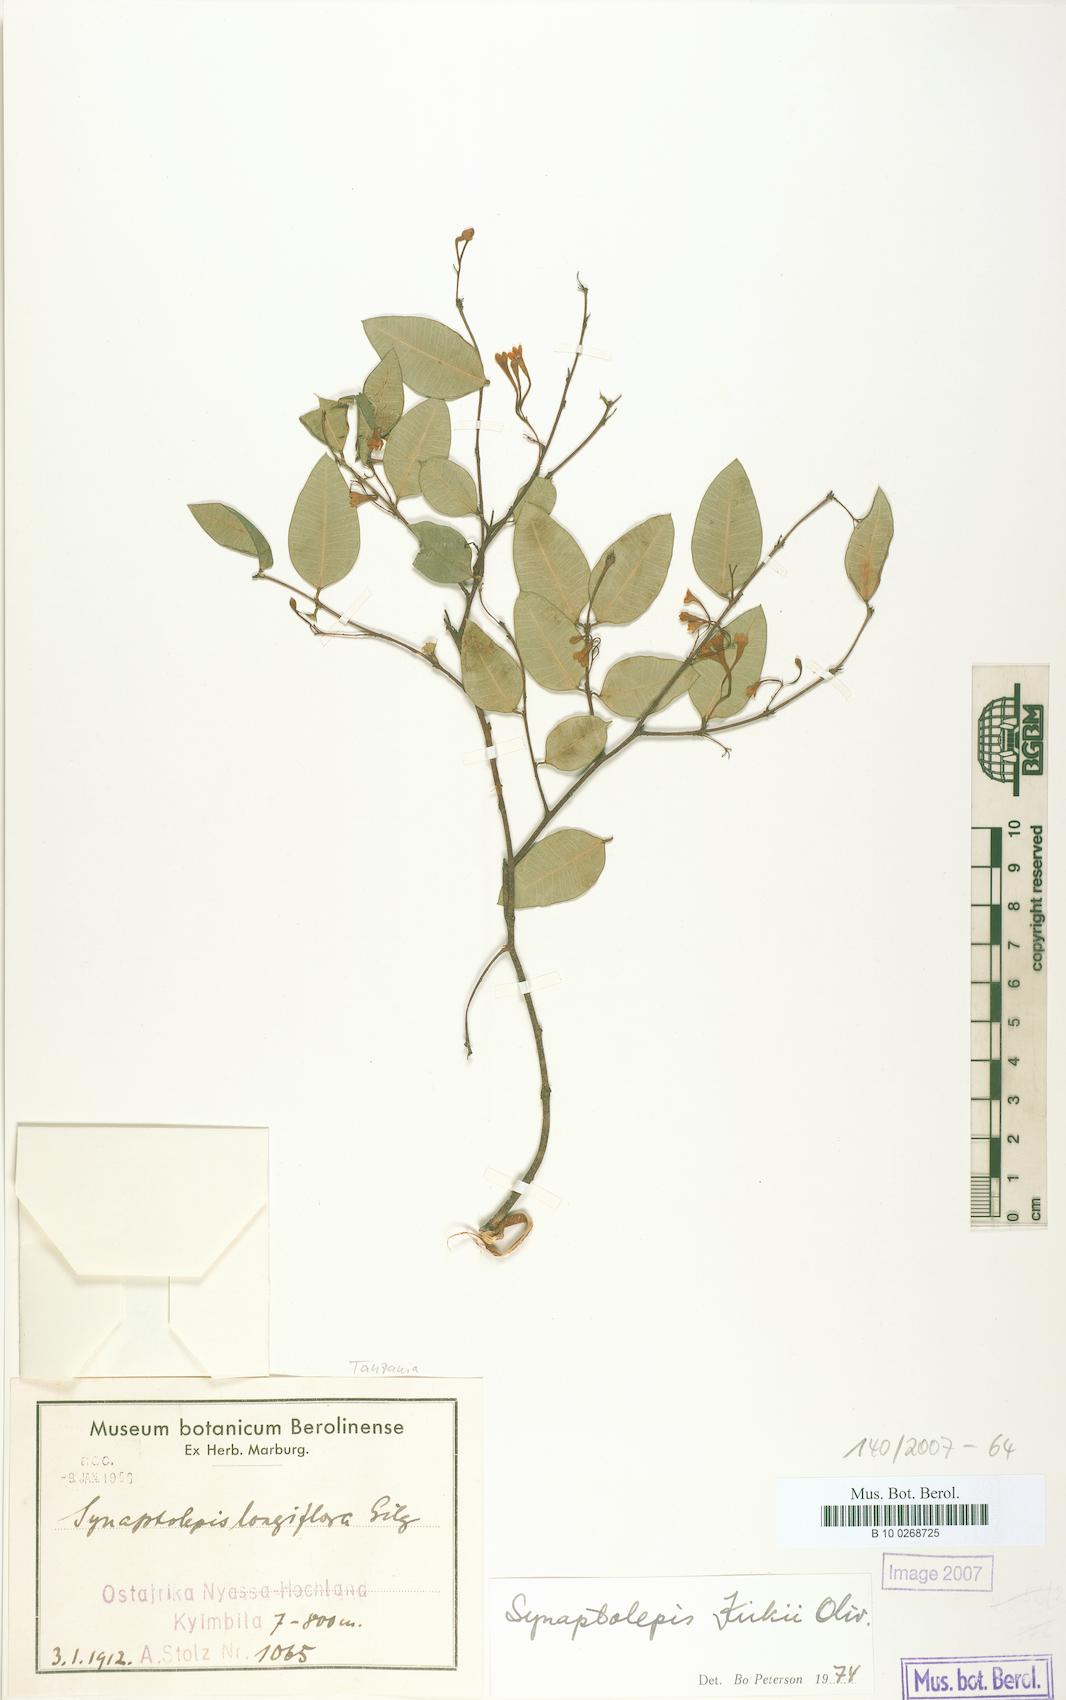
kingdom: Plantae
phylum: Tracheophyta
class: Magnoliopsida
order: Malvales
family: Thymelaeaceae
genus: Synaptolepis
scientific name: Synaptolepis kirkii
